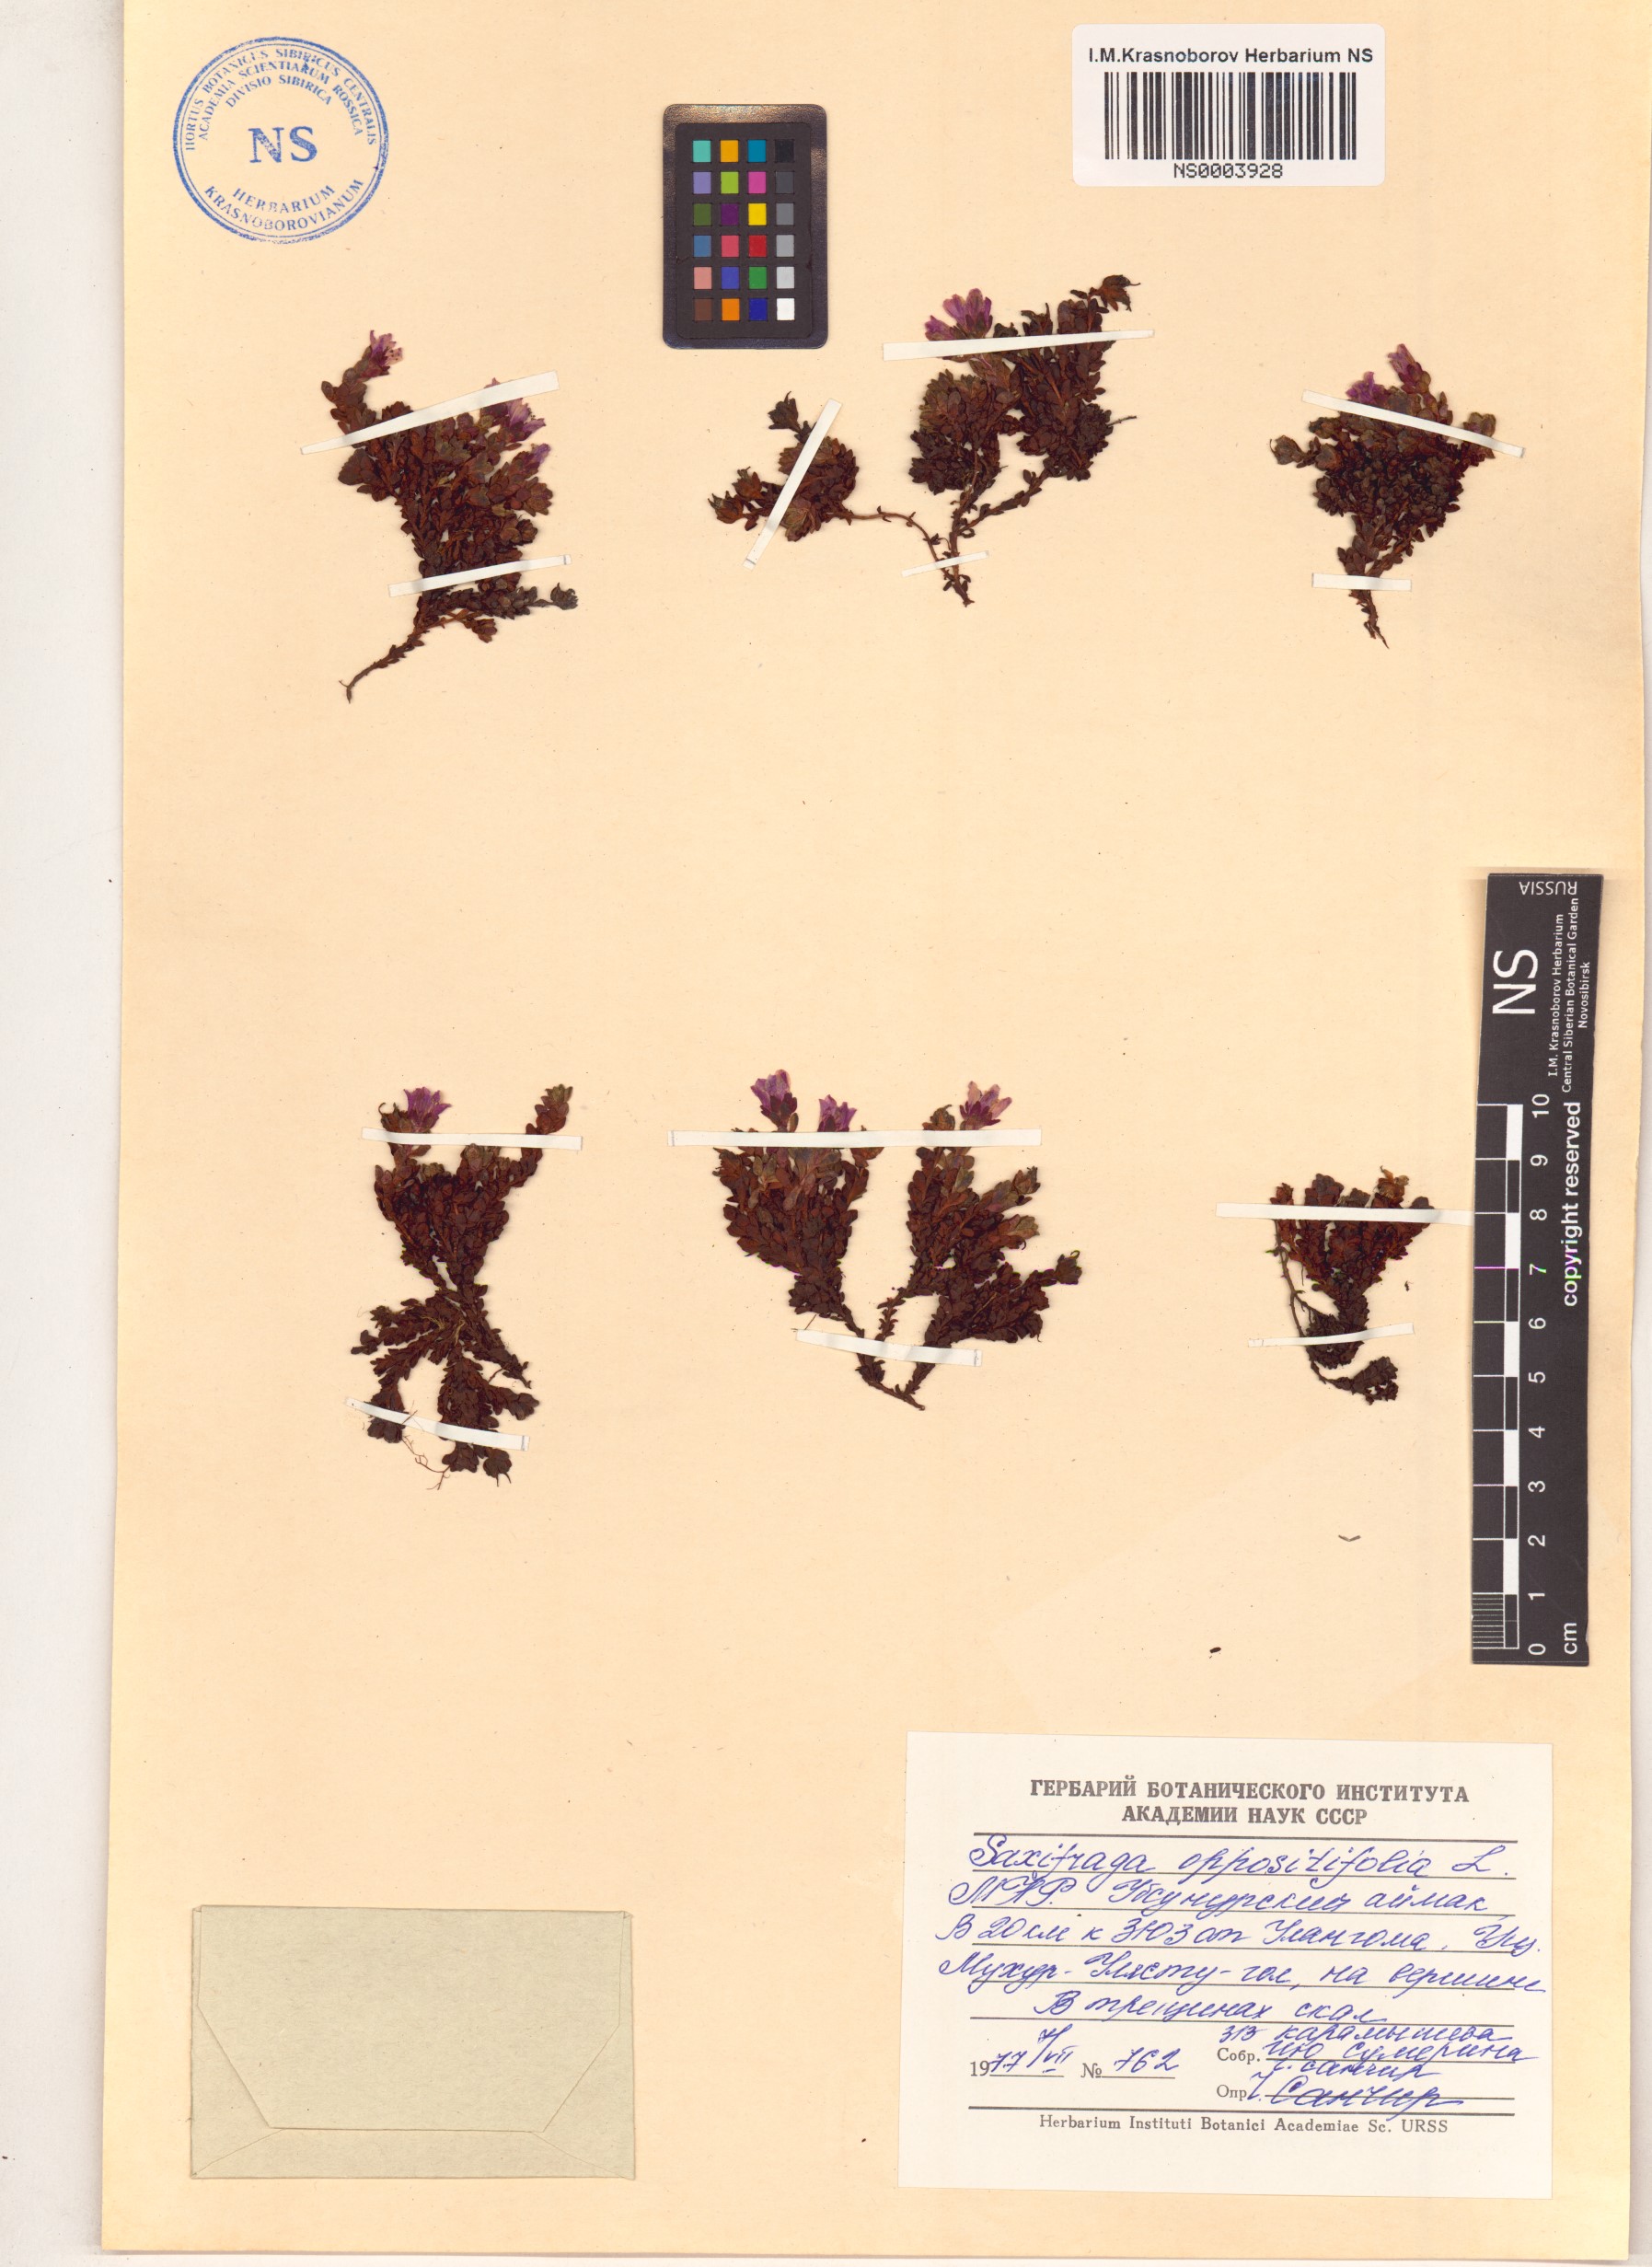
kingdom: Plantae
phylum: Tracheophyta
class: Magnoliopsida
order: Saxifragales
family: Saxifragaceae
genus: Saxifraga
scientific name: Saxifraga oppositifolia
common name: Purple saxifrage
